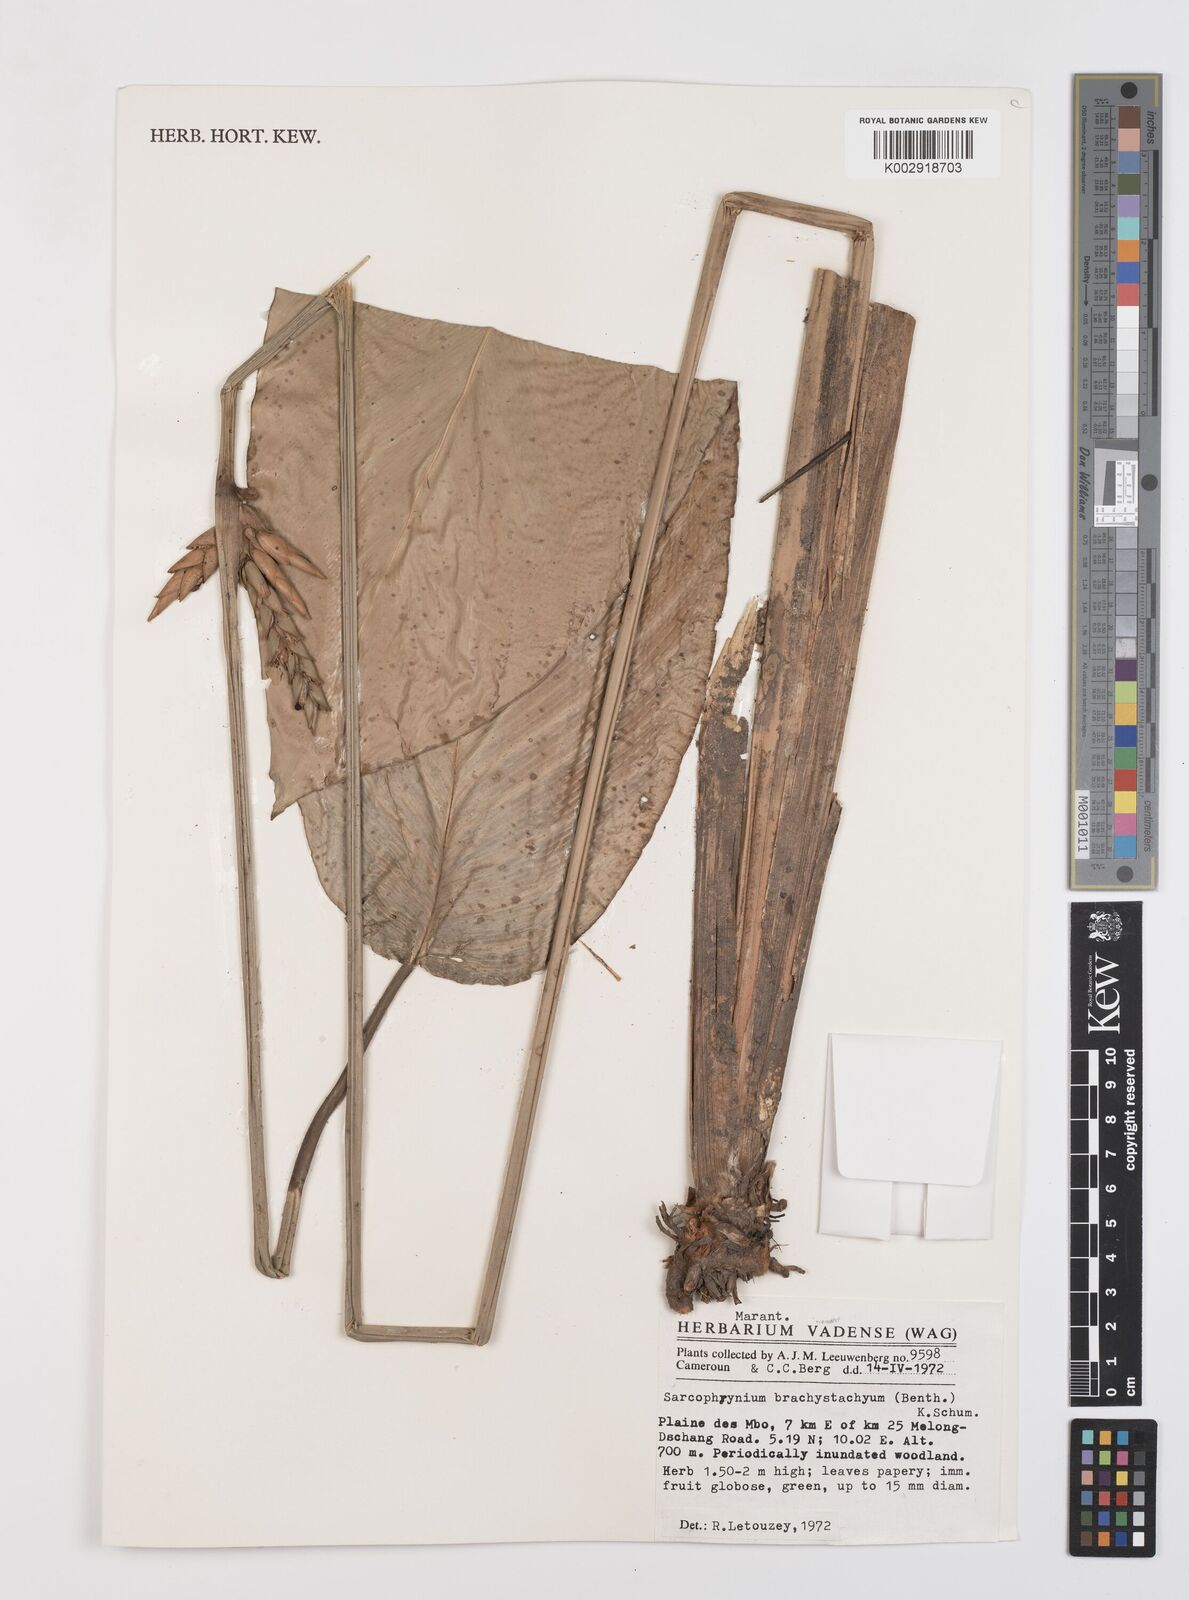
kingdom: Plantae
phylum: Tracheophyta
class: Liliopsida
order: Zingiberales
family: Marantaceae
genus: Sarcophrynium
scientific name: Sarcophrynium brachystachyum
